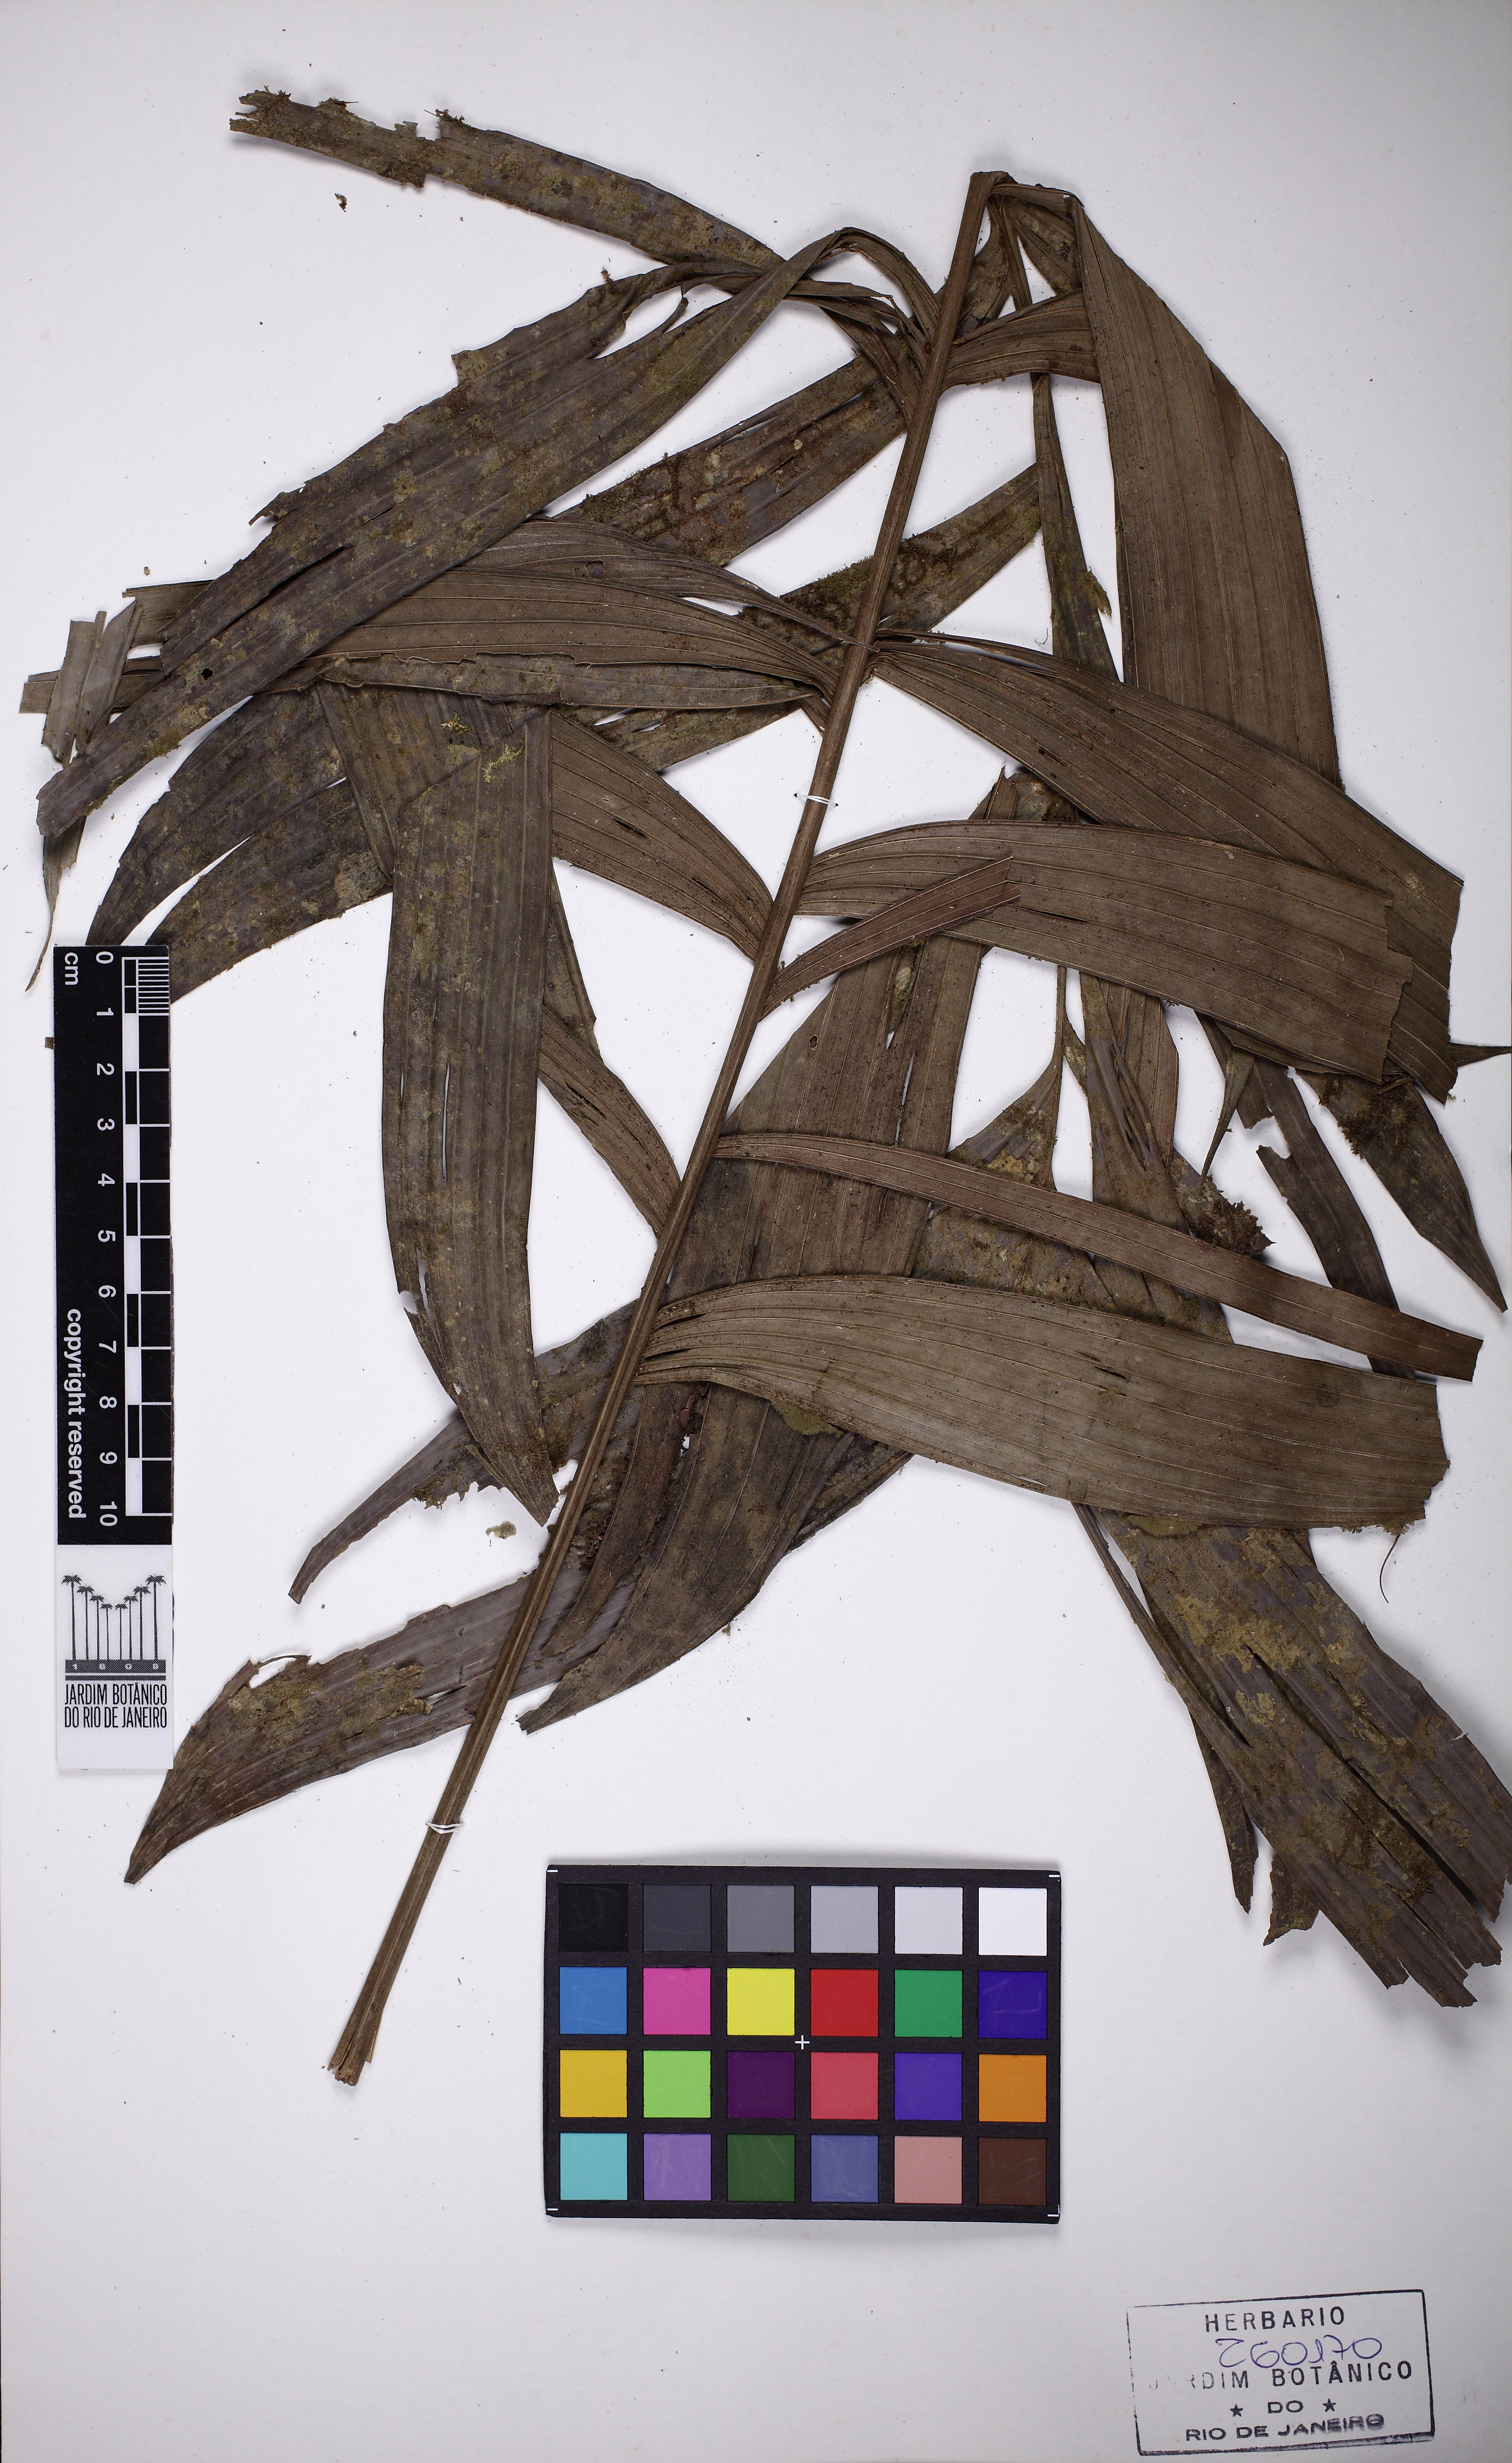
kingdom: Plantae
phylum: Tracheophyta
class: Liliopsida
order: Arecales
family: Arecaceae
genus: Geonoma
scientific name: Geonoma macrostachys
